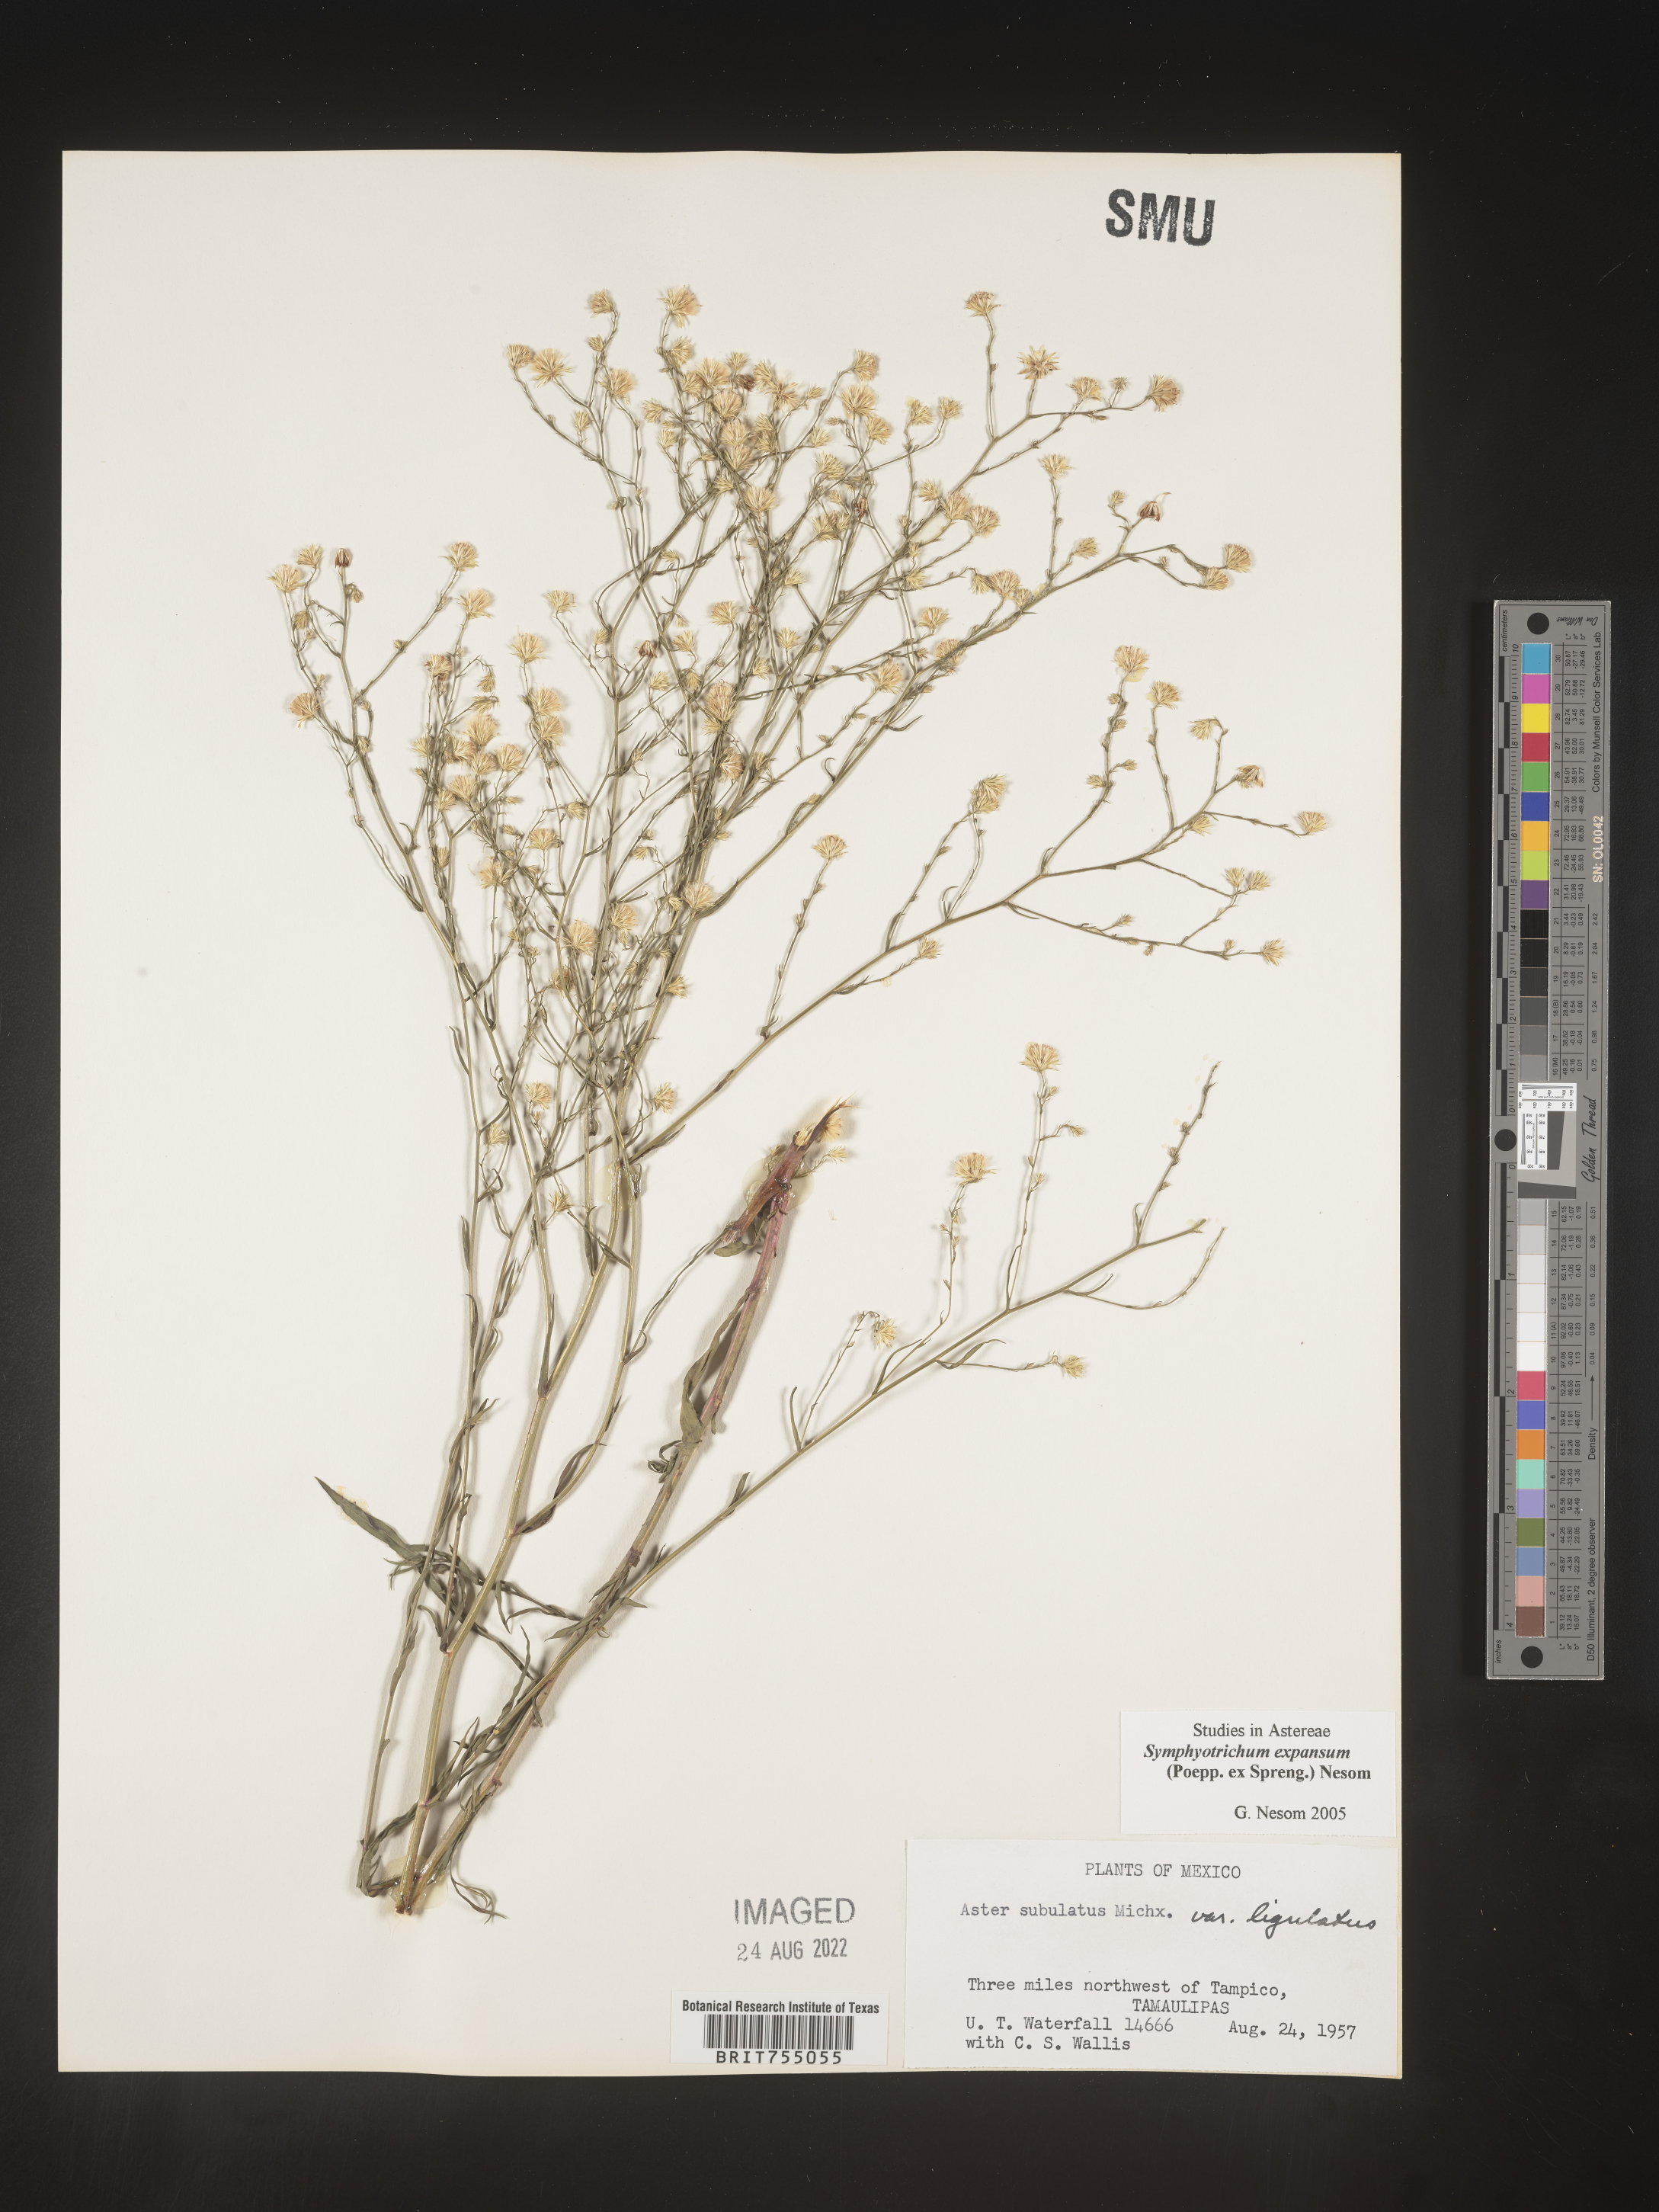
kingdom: Plantae
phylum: Tracheophyta
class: Magnoliopsida
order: Asterales
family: Asteraceae
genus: Symphyotrichum
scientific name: Symphyotrichum expansum
